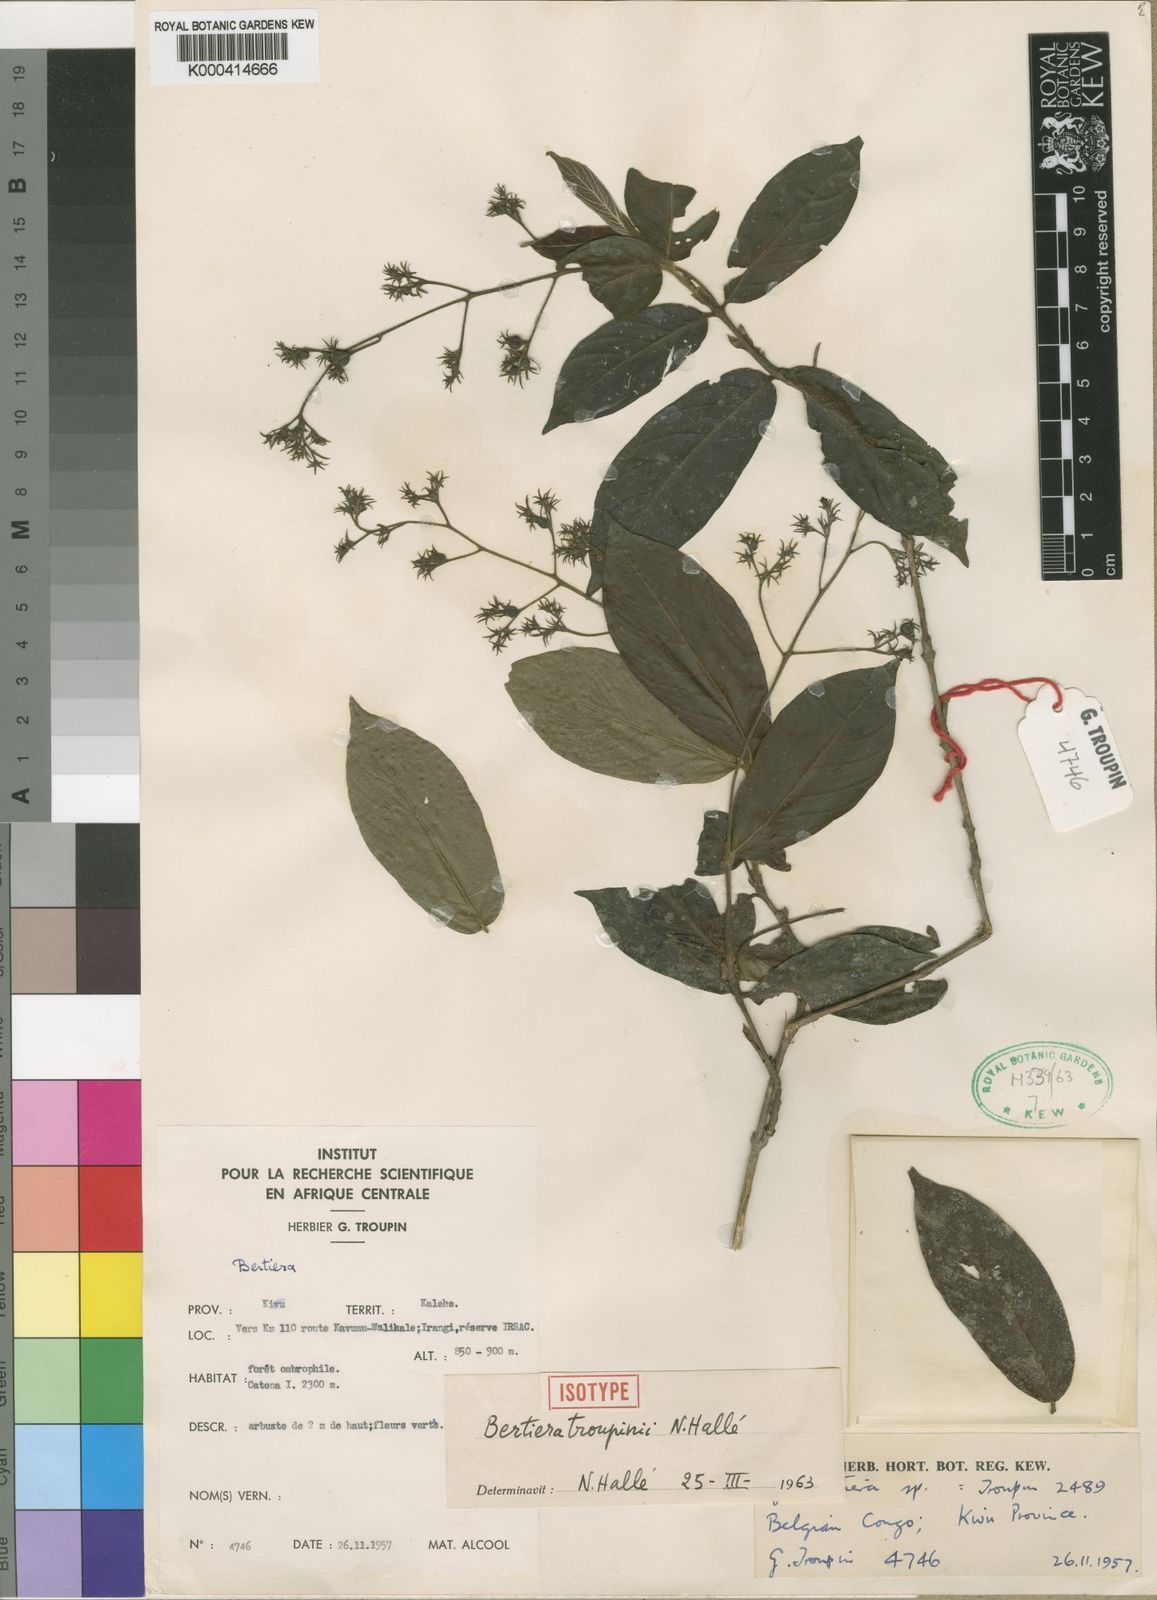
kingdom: Plantae
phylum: Tracheophyta
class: Magnoliopsida
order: Gentianales
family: Rubiaceae
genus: Bertiera
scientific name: Bertiera
